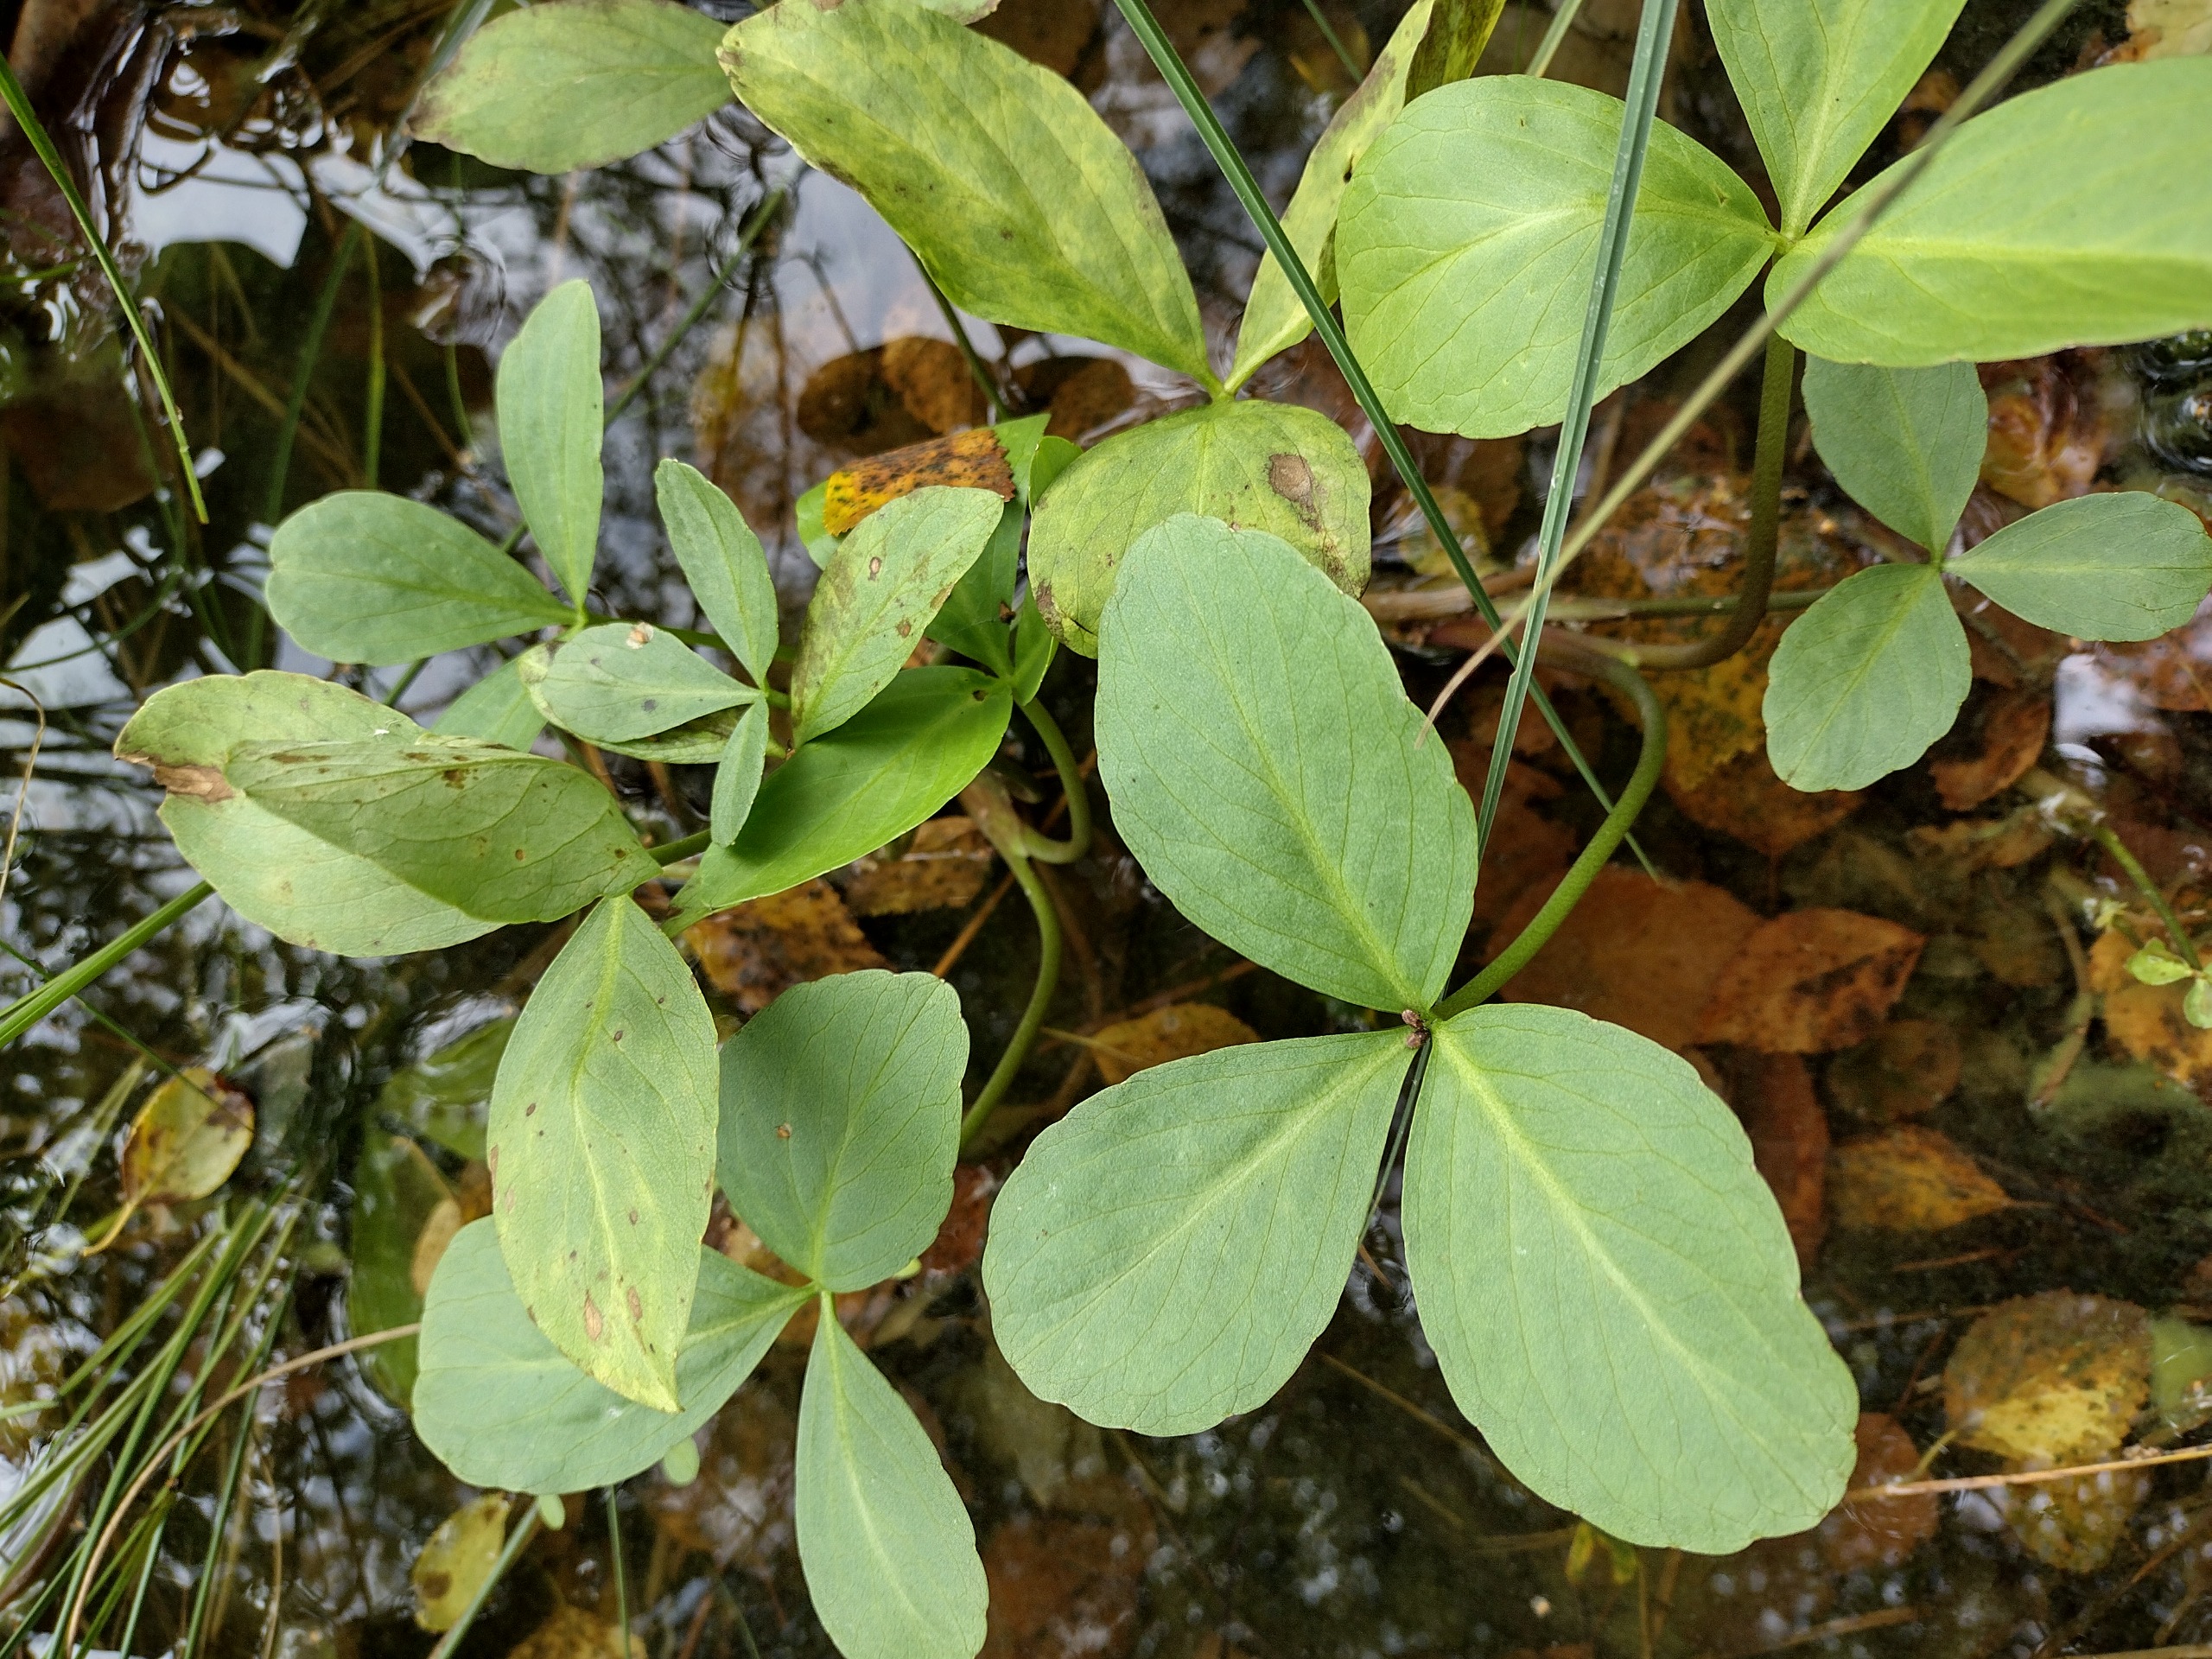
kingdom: Plantae
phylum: Tracheophyta
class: Magnoliopsida
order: Asterales
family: Menyanthaceae
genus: Menyanthes
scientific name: Menyanthes trifoliata
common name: Bukkeblad
